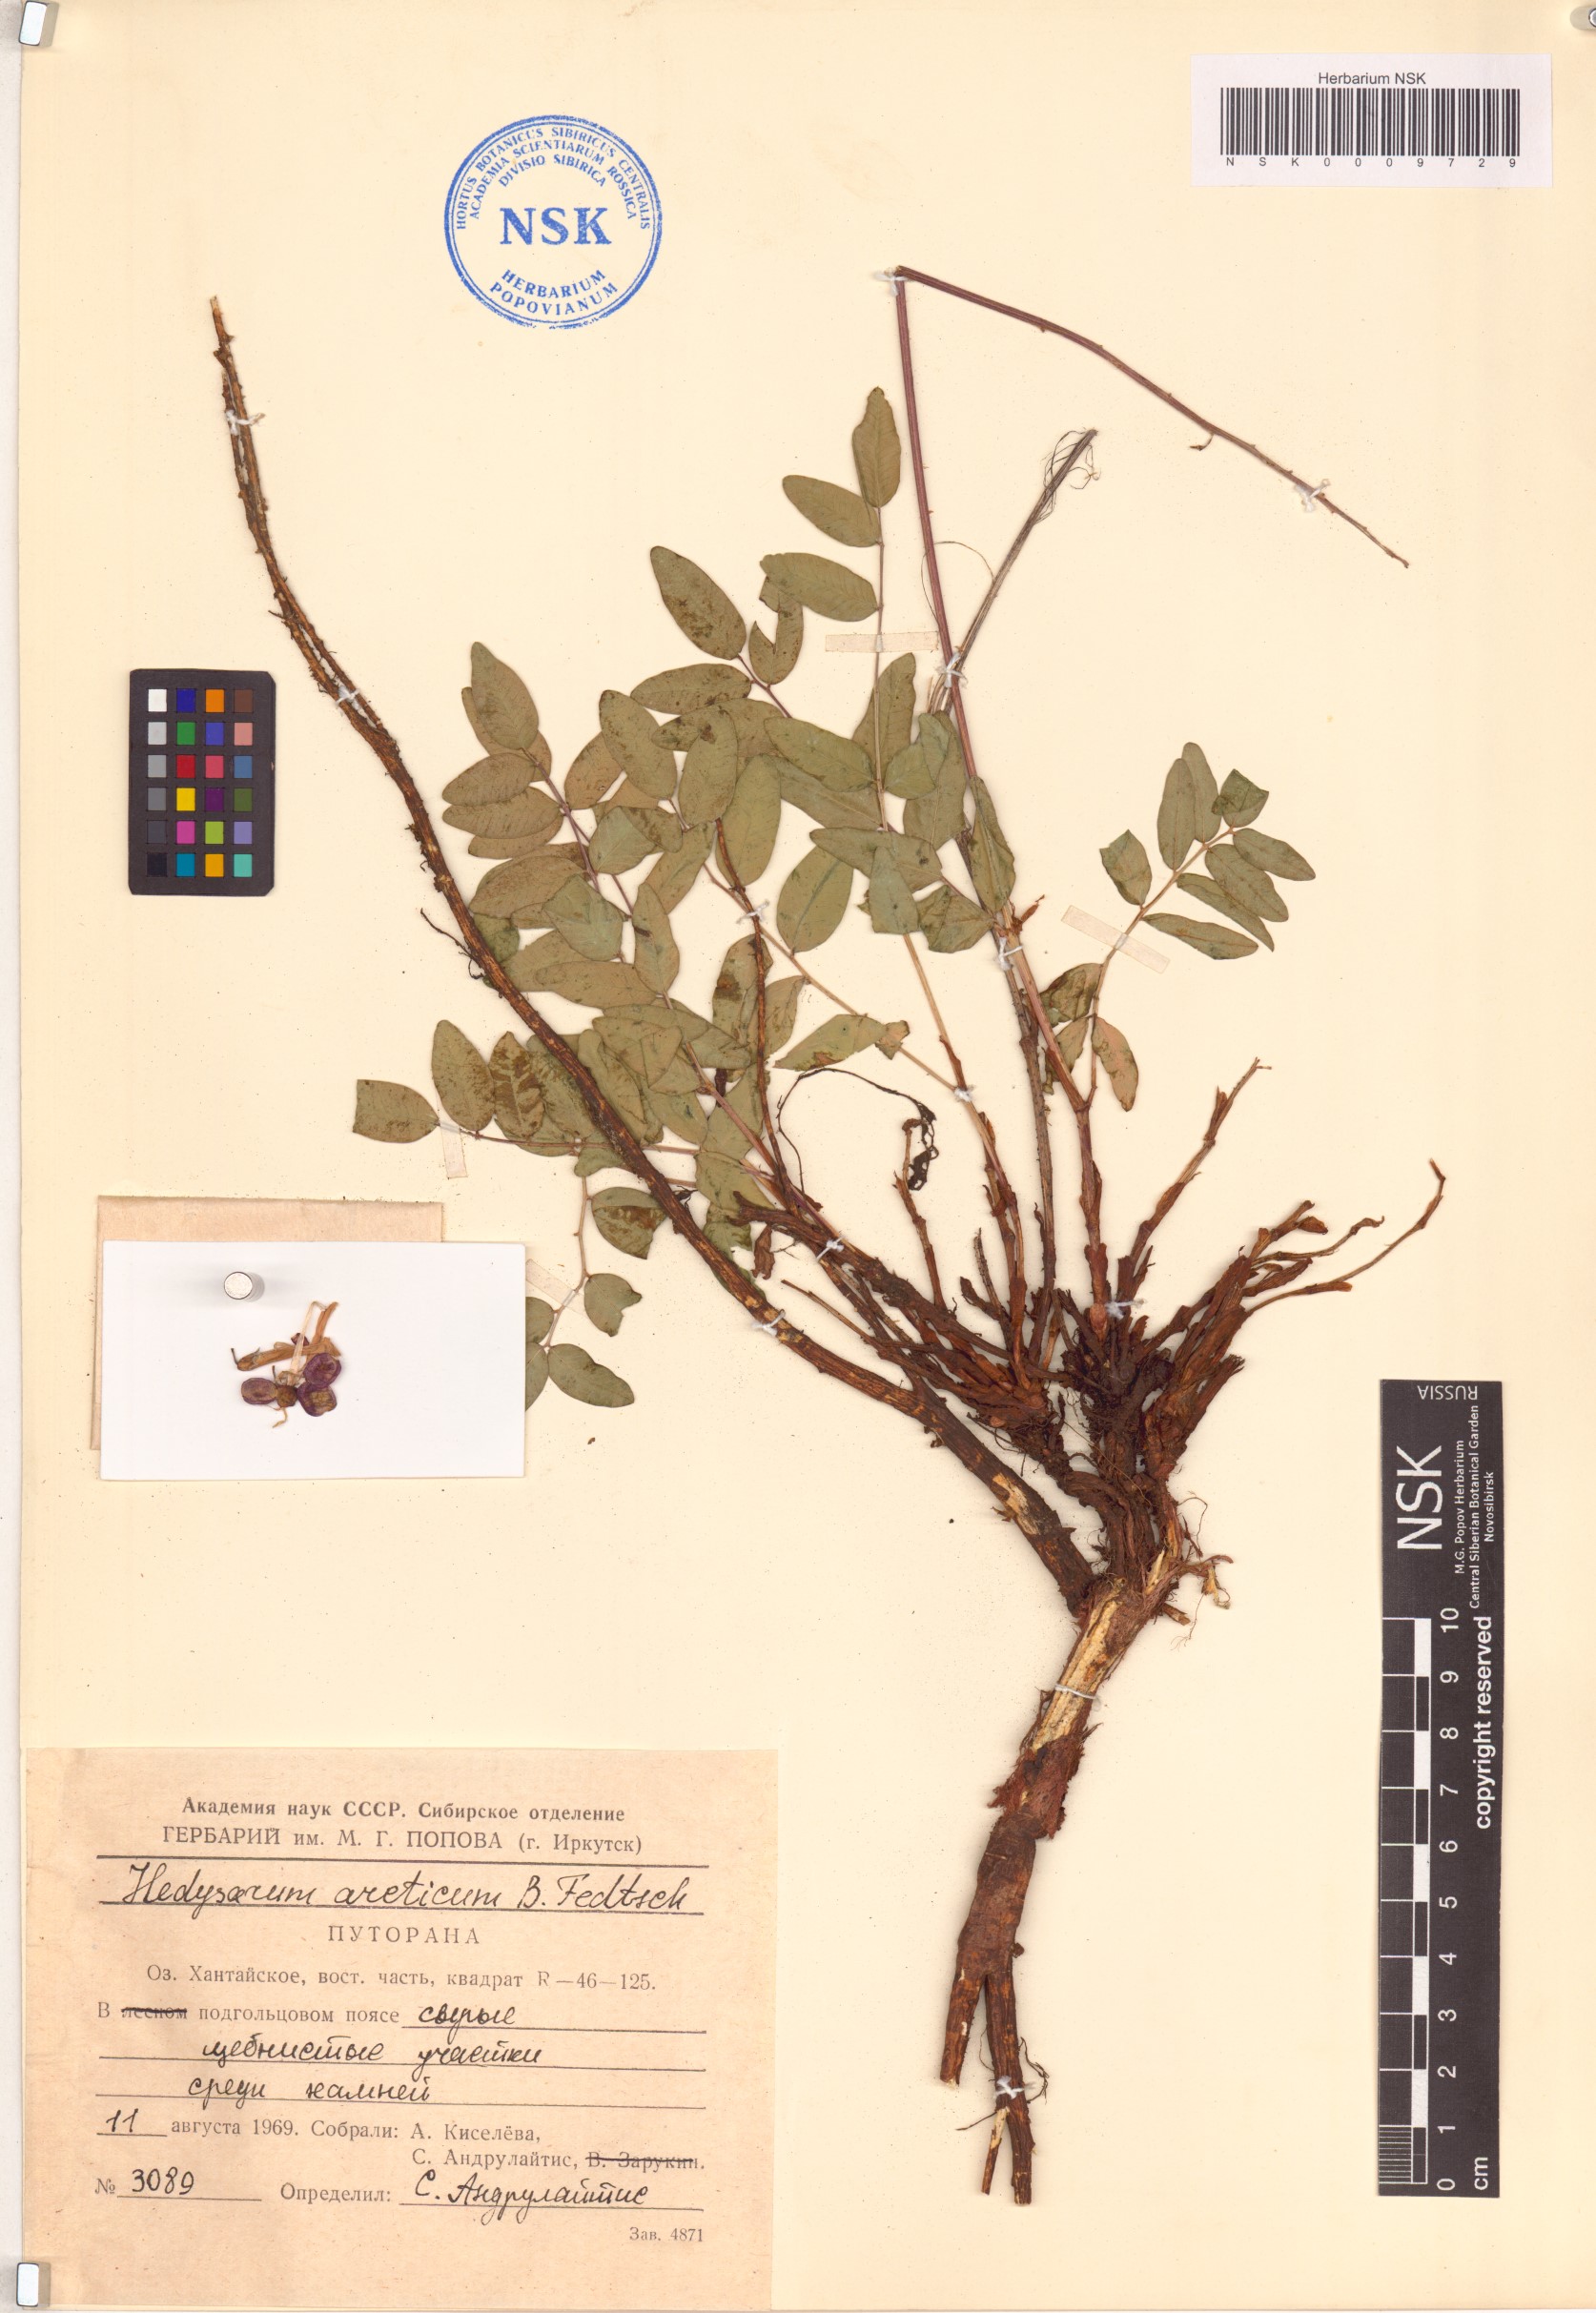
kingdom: Plantae
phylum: Tracheophyta
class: Magnoliopsida
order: Fabales
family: Fabaceae
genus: Hedysarum
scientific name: Hedysarum hedysaroides
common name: Alpine french-honeysuckle
